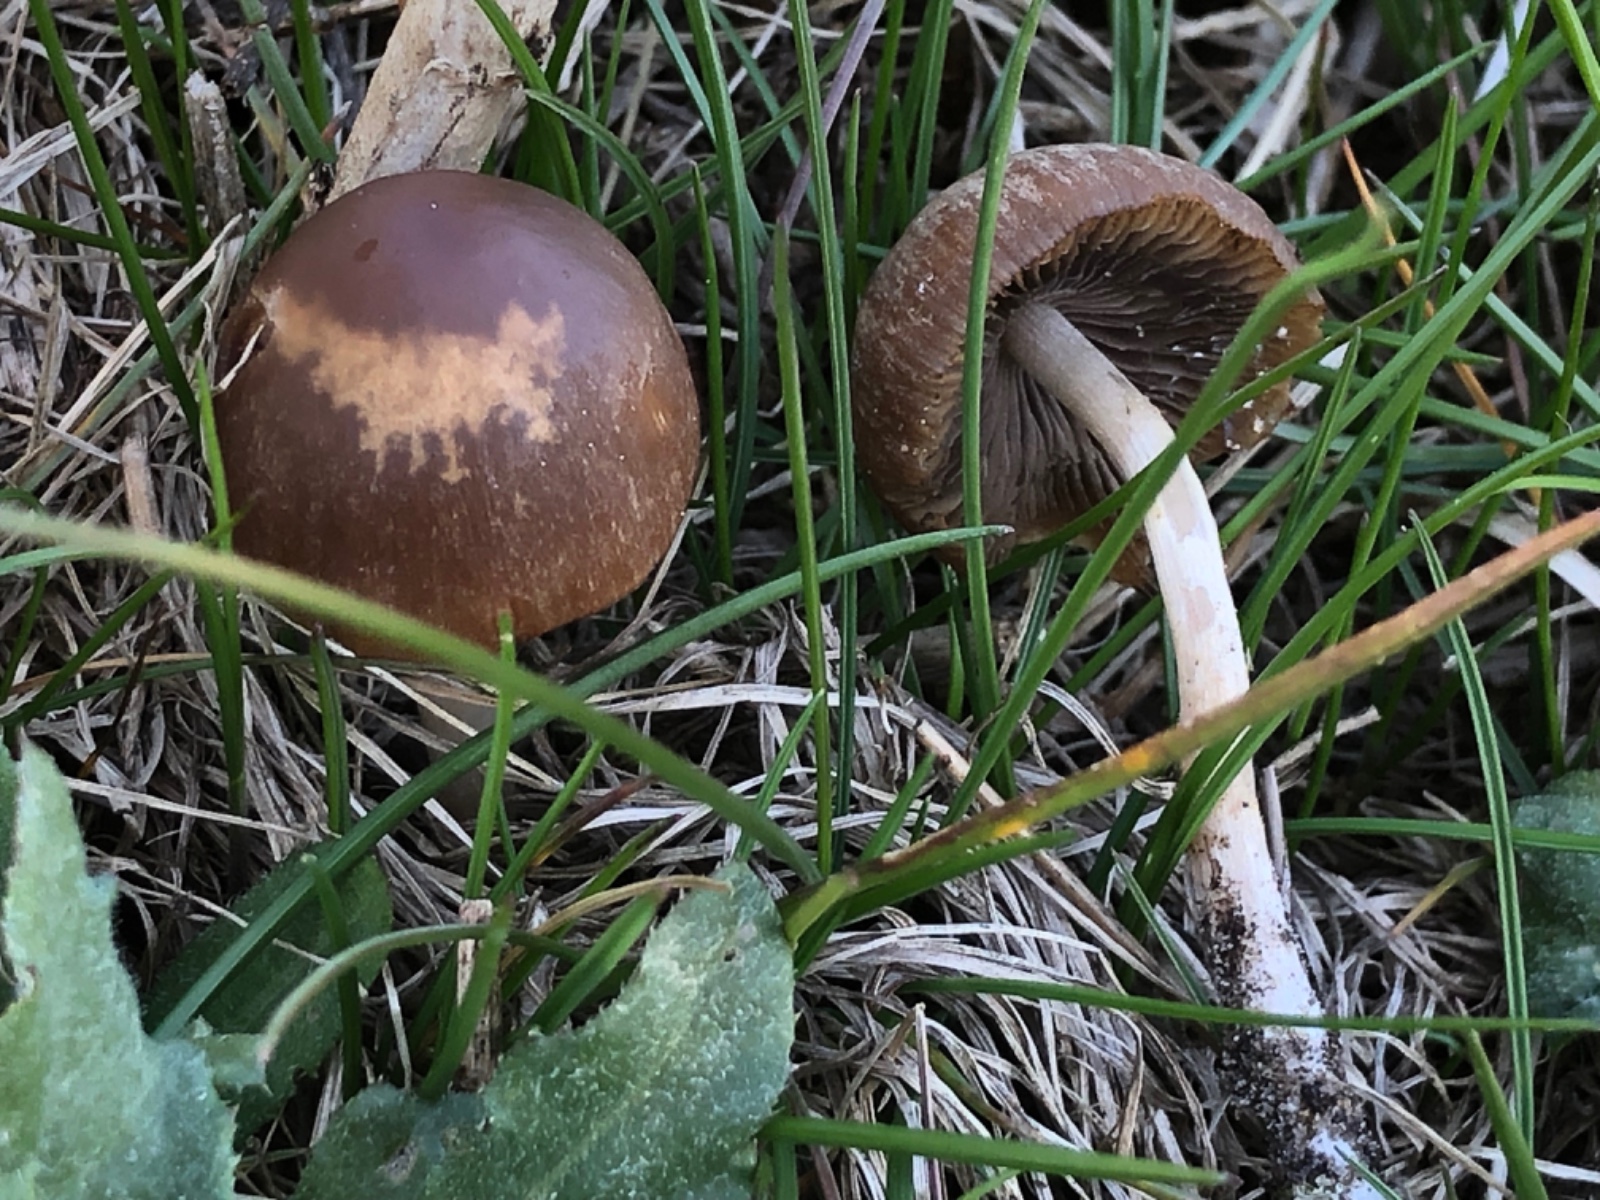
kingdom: Fungi
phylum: Basidiomycota
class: Agaricomycetes
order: Agaricales
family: Psathyrellaceae
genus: Psathyrella
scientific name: Psathyrella
